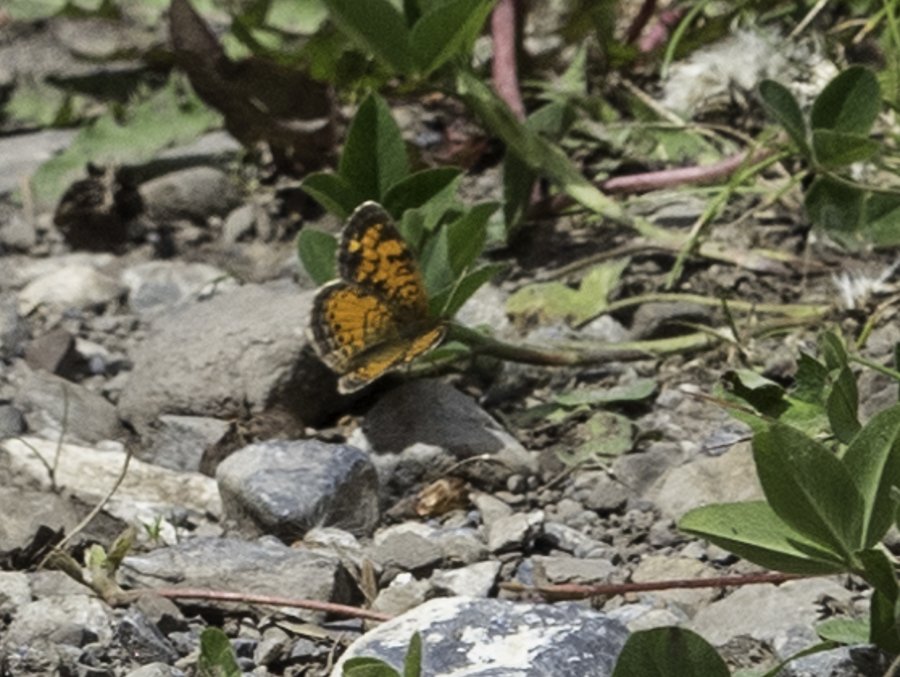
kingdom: Animalia
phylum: Arthropoda
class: Insecta
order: Lepidoptera
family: Nymphalidae
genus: Phyciodes
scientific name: Phyciodes tharos
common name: Northern Crescent
